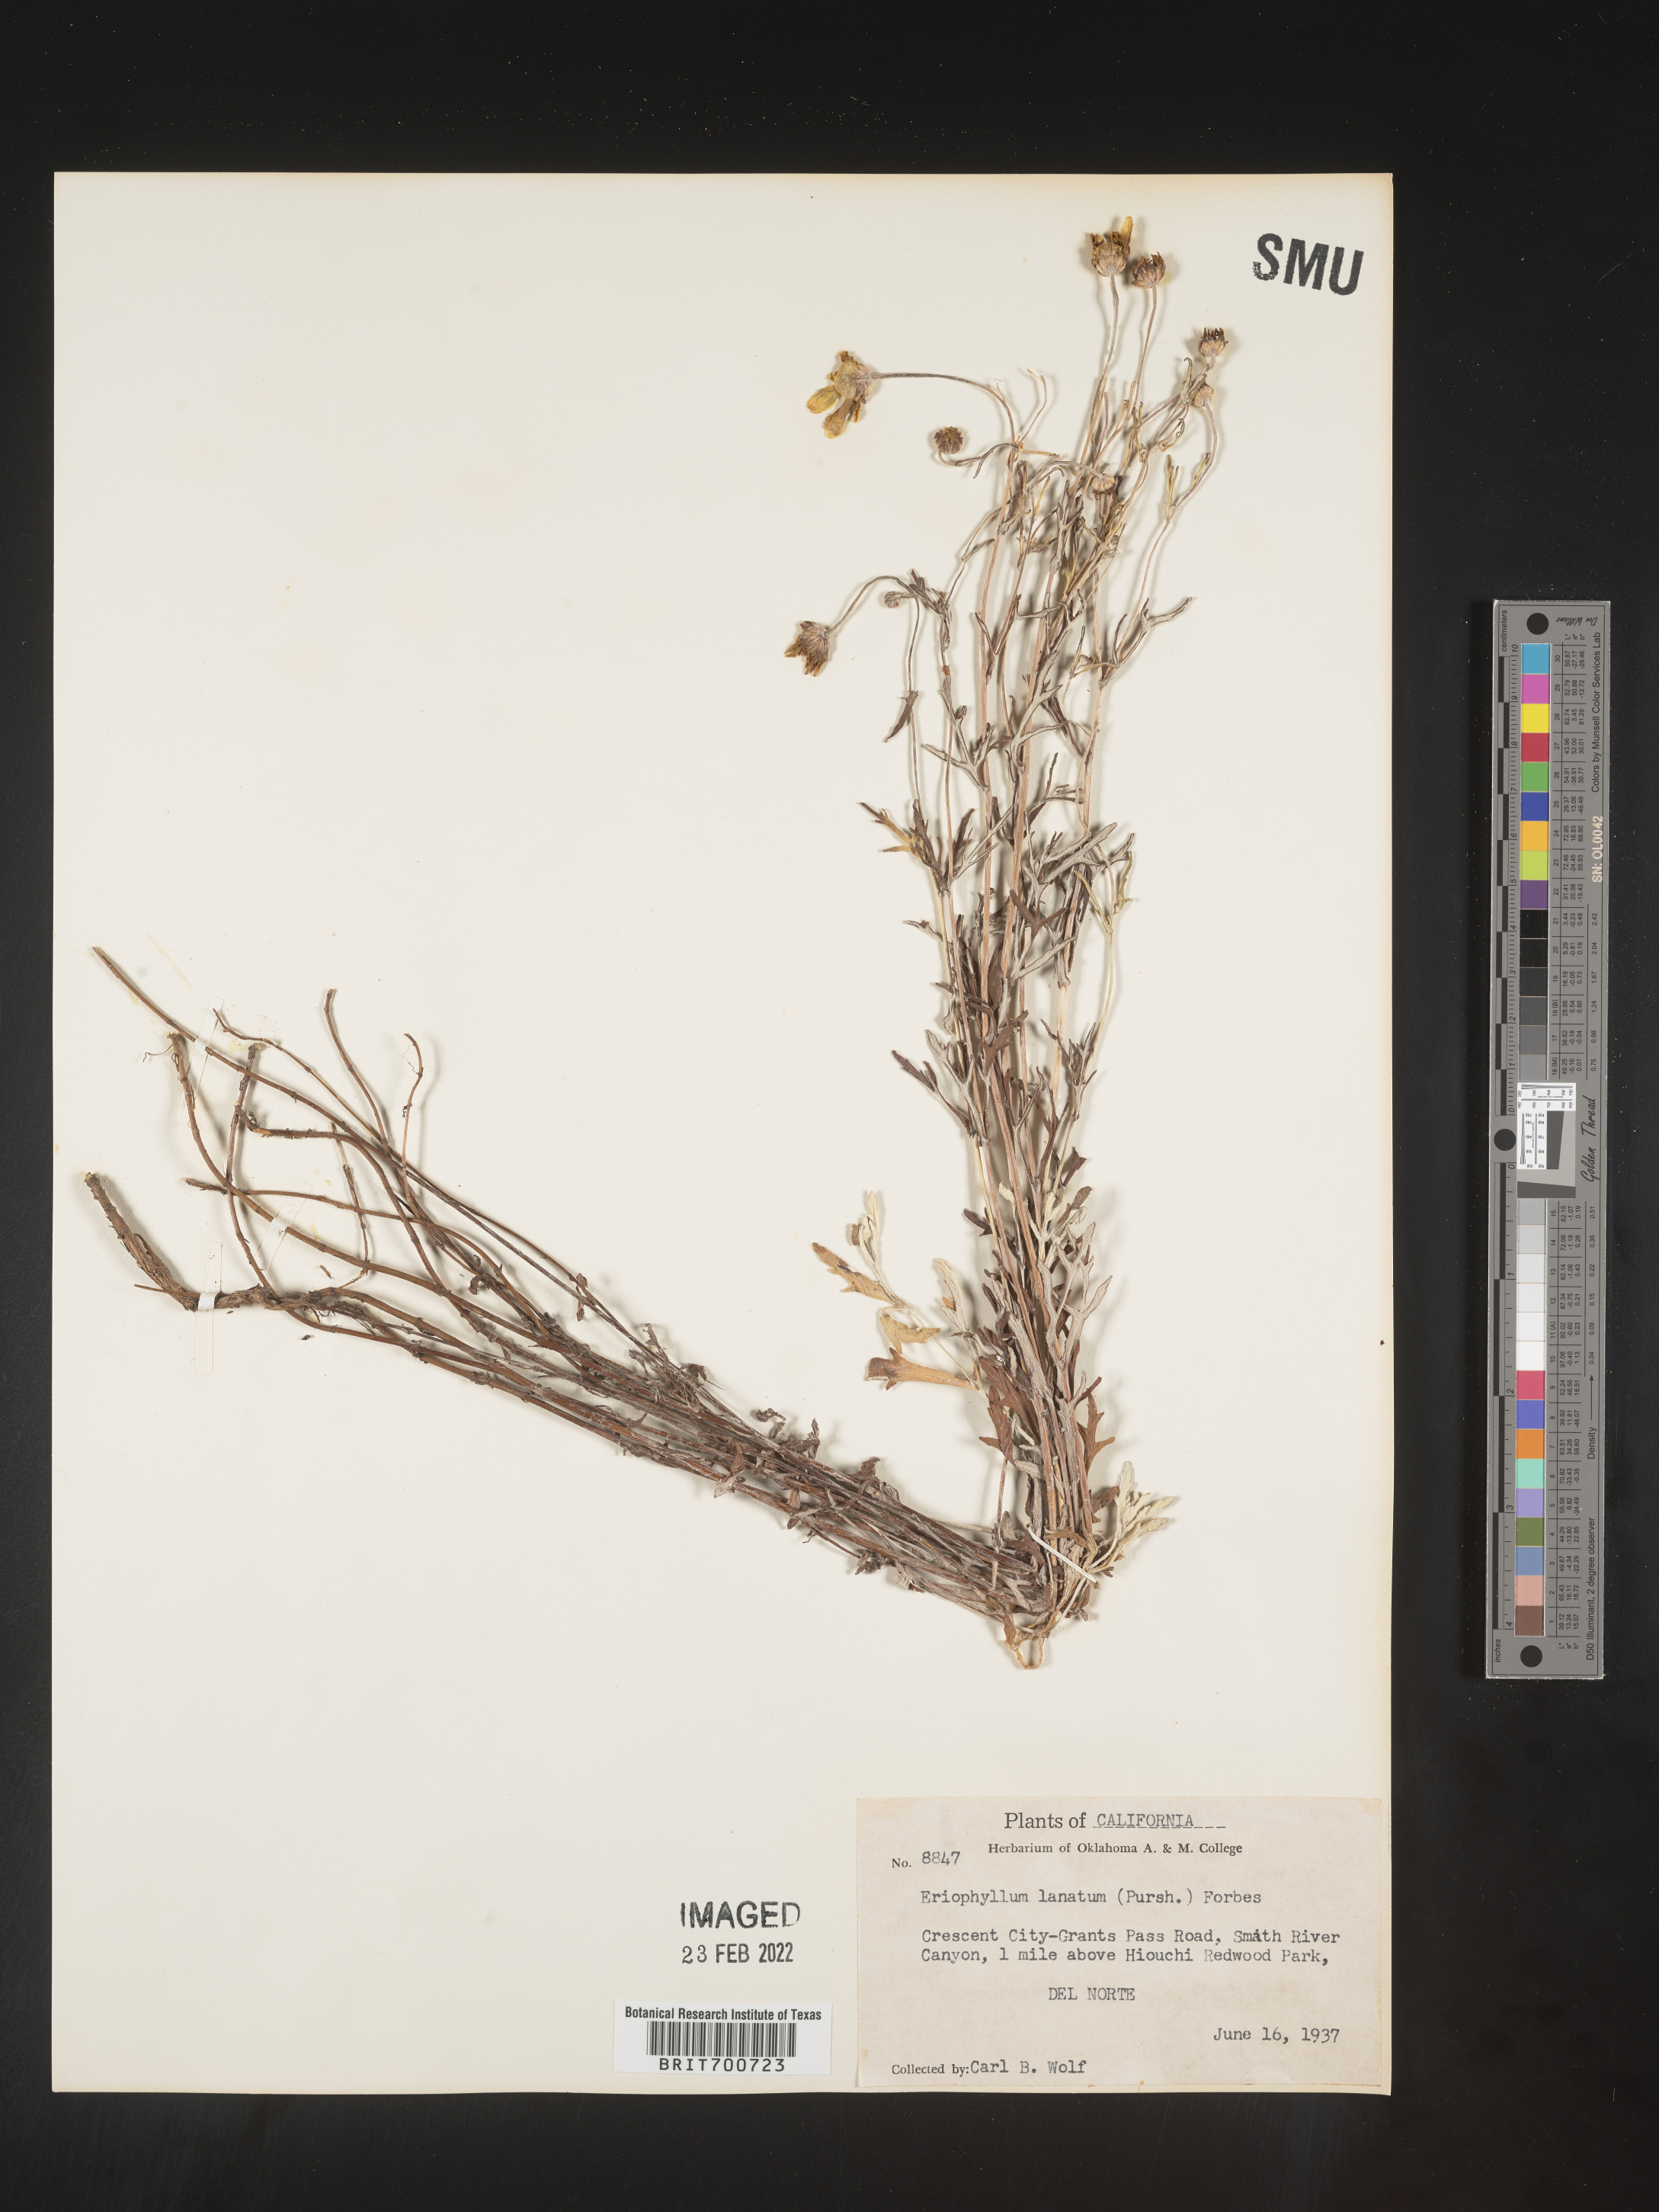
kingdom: Plantae
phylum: Tracheophyta
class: Magnoliopsida
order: Asterales
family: Asteraceae
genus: Eriophyllum
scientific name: Eriophyllum lanatum
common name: Common woolly-sunflower
